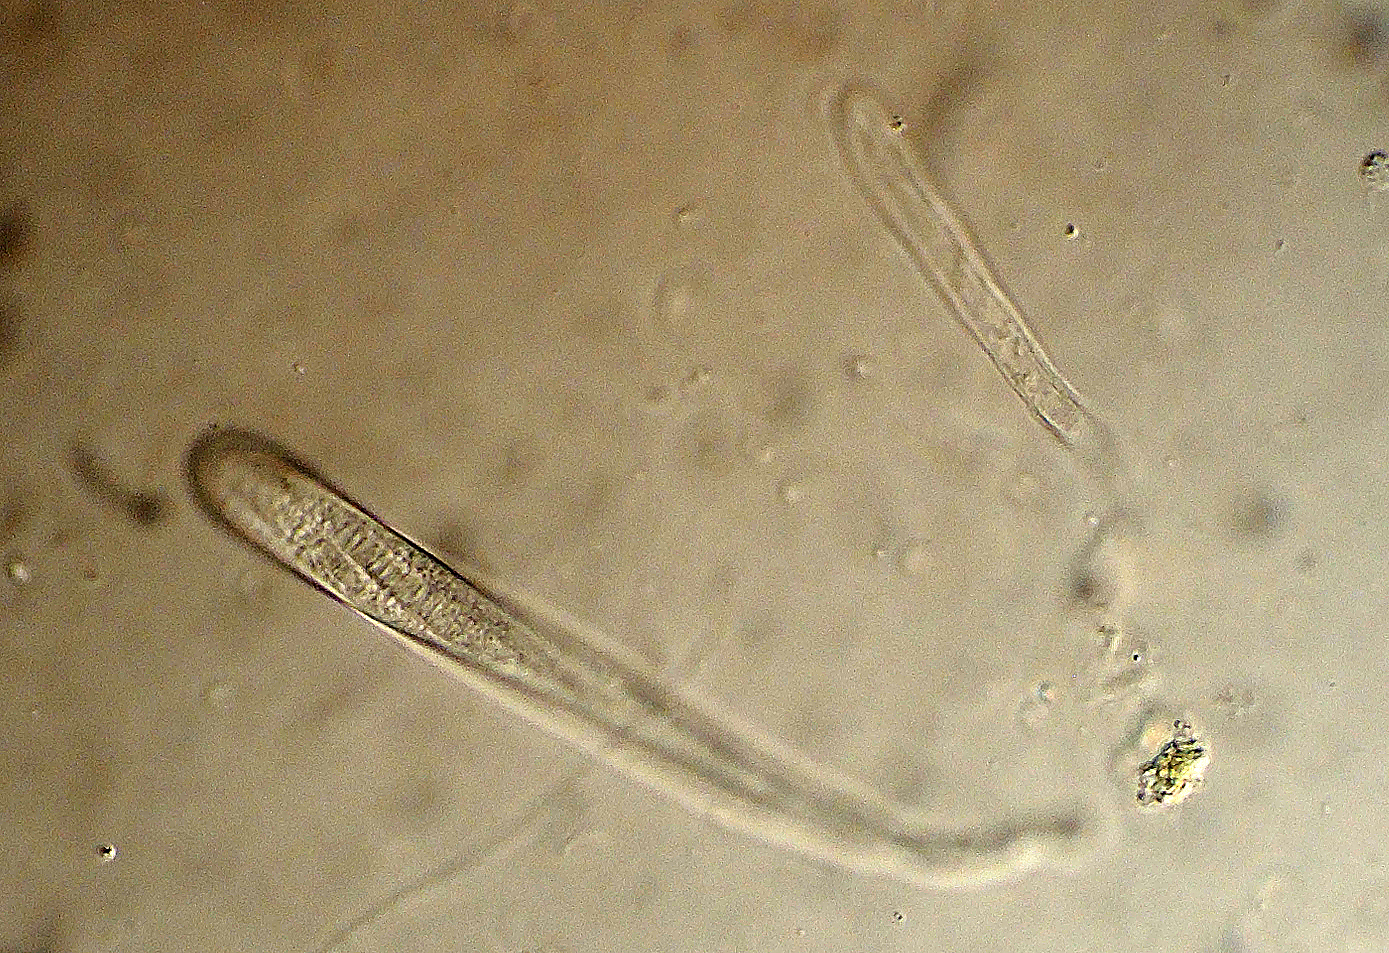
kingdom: Fungi
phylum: Ascomycota
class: Leotiomycetes
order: Leotiales
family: Tympanidaceae
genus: Vexillomyces
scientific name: Vexillomyces atrovirens
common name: sortgrøn linseskive
